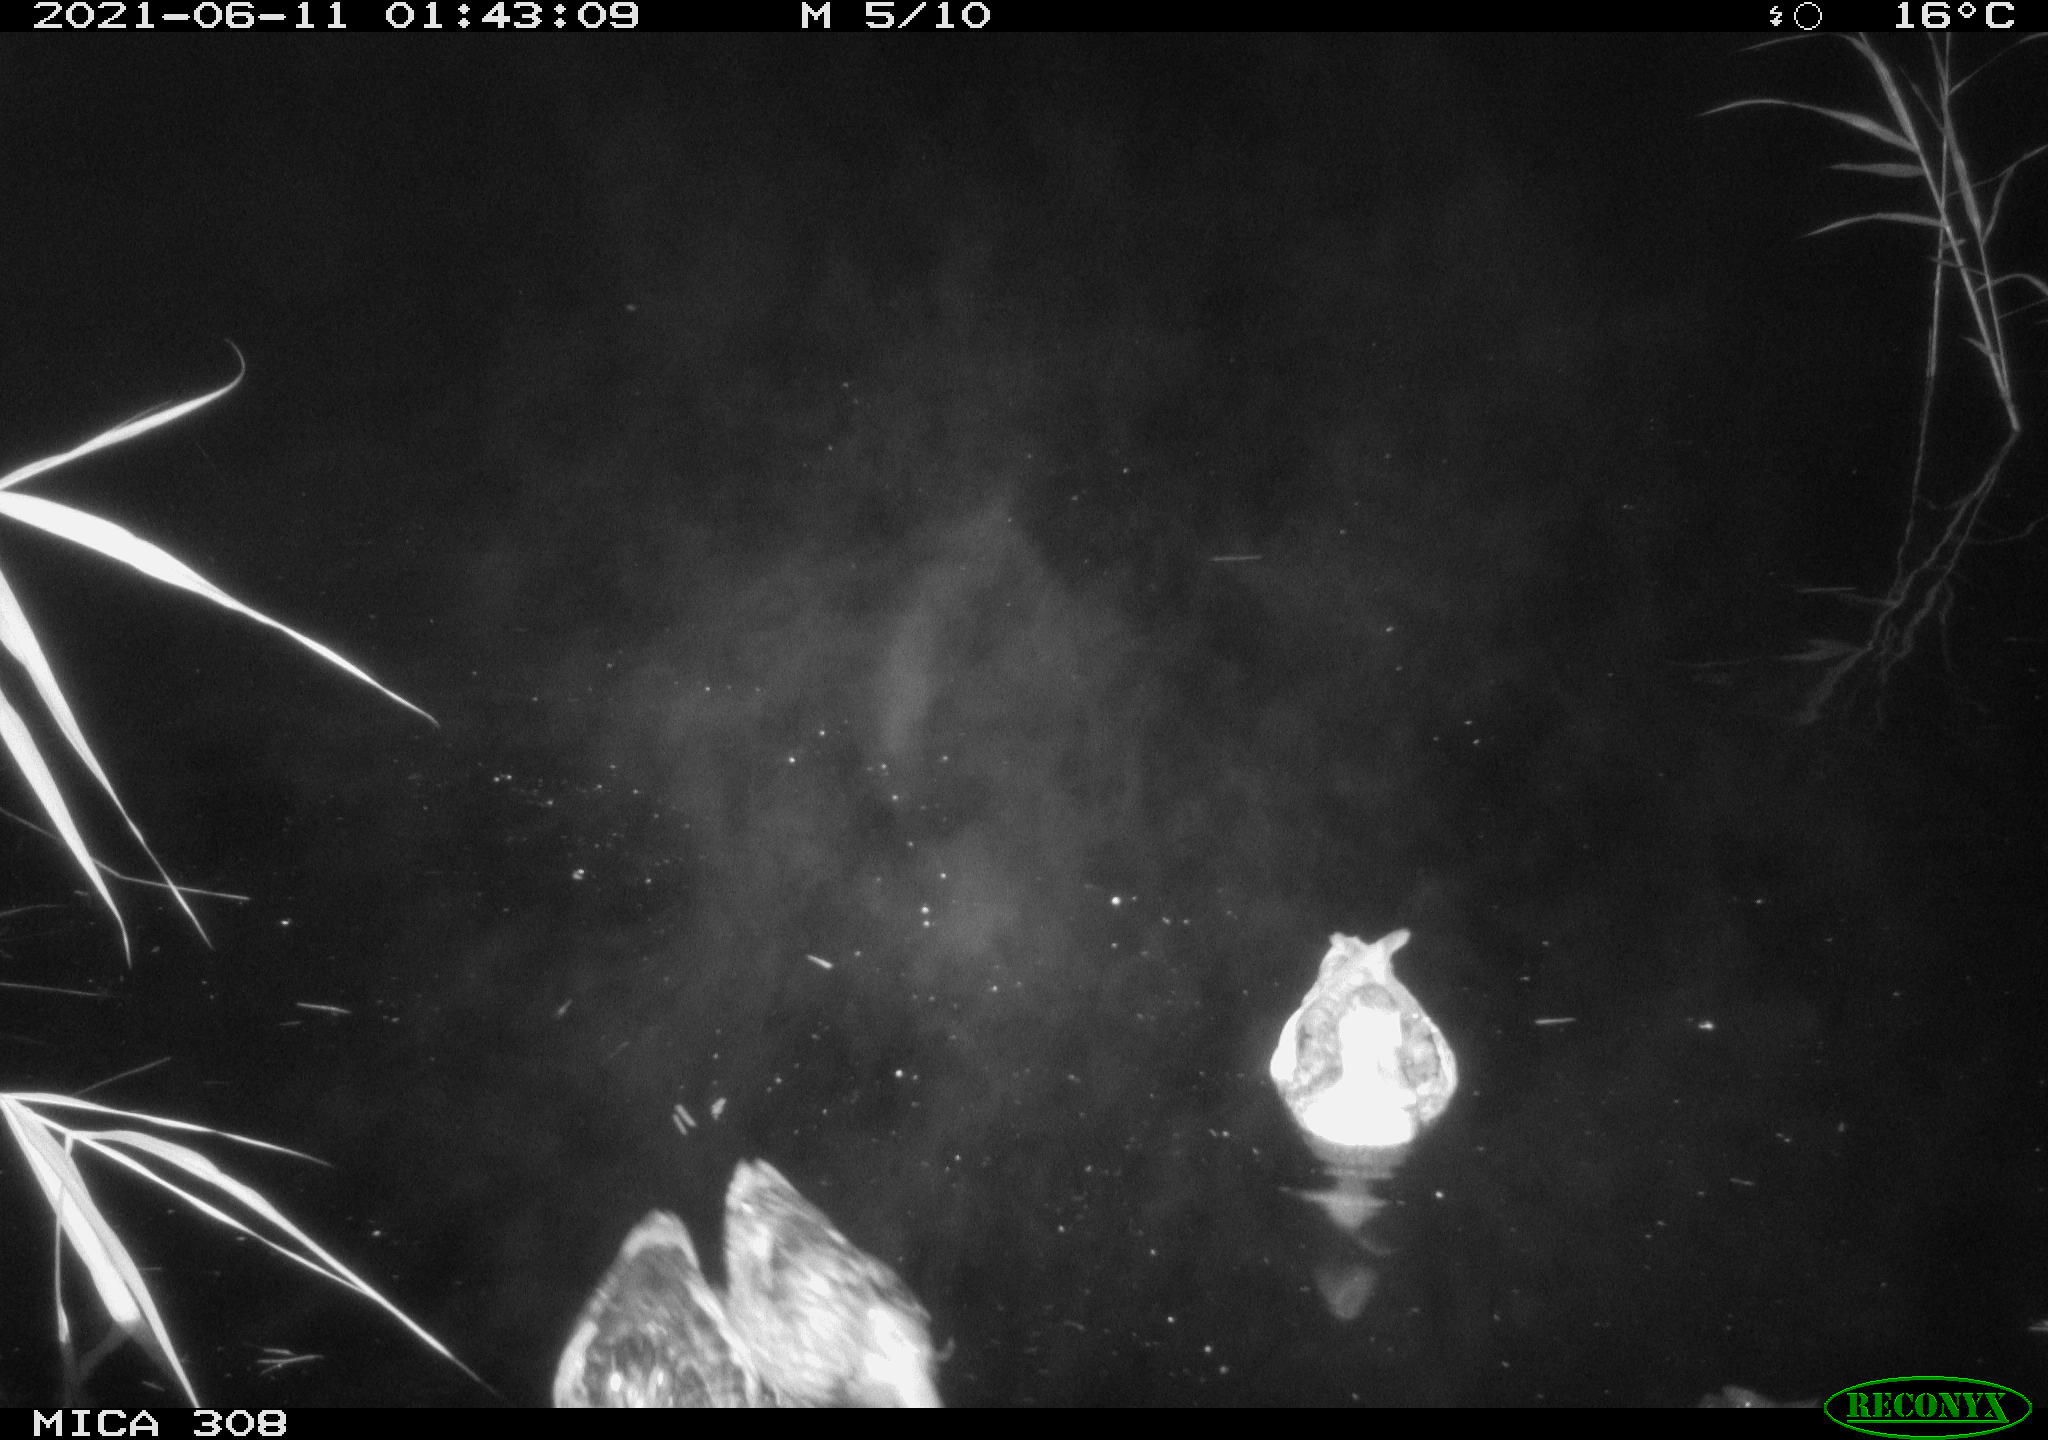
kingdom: Animalia
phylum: Chordata
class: Aves
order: Anseriformes
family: Anatidae
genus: Mareca
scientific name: Mareca strepera
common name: Gadwall
